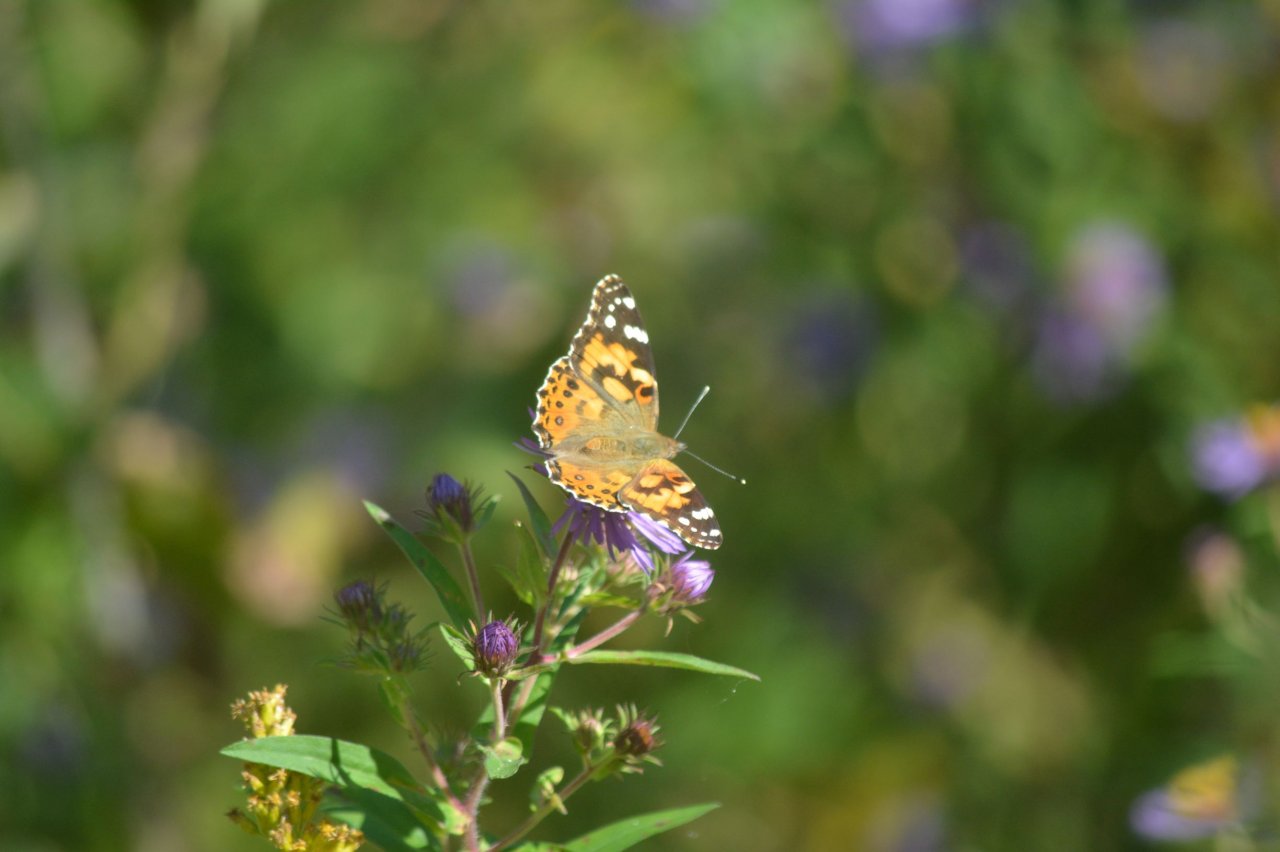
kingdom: Animalia
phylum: Arthropoda
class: Insecta
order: Lepidoptera
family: Nymphalidae
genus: Vanessa
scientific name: Vanessa cardui
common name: Painted Lady
